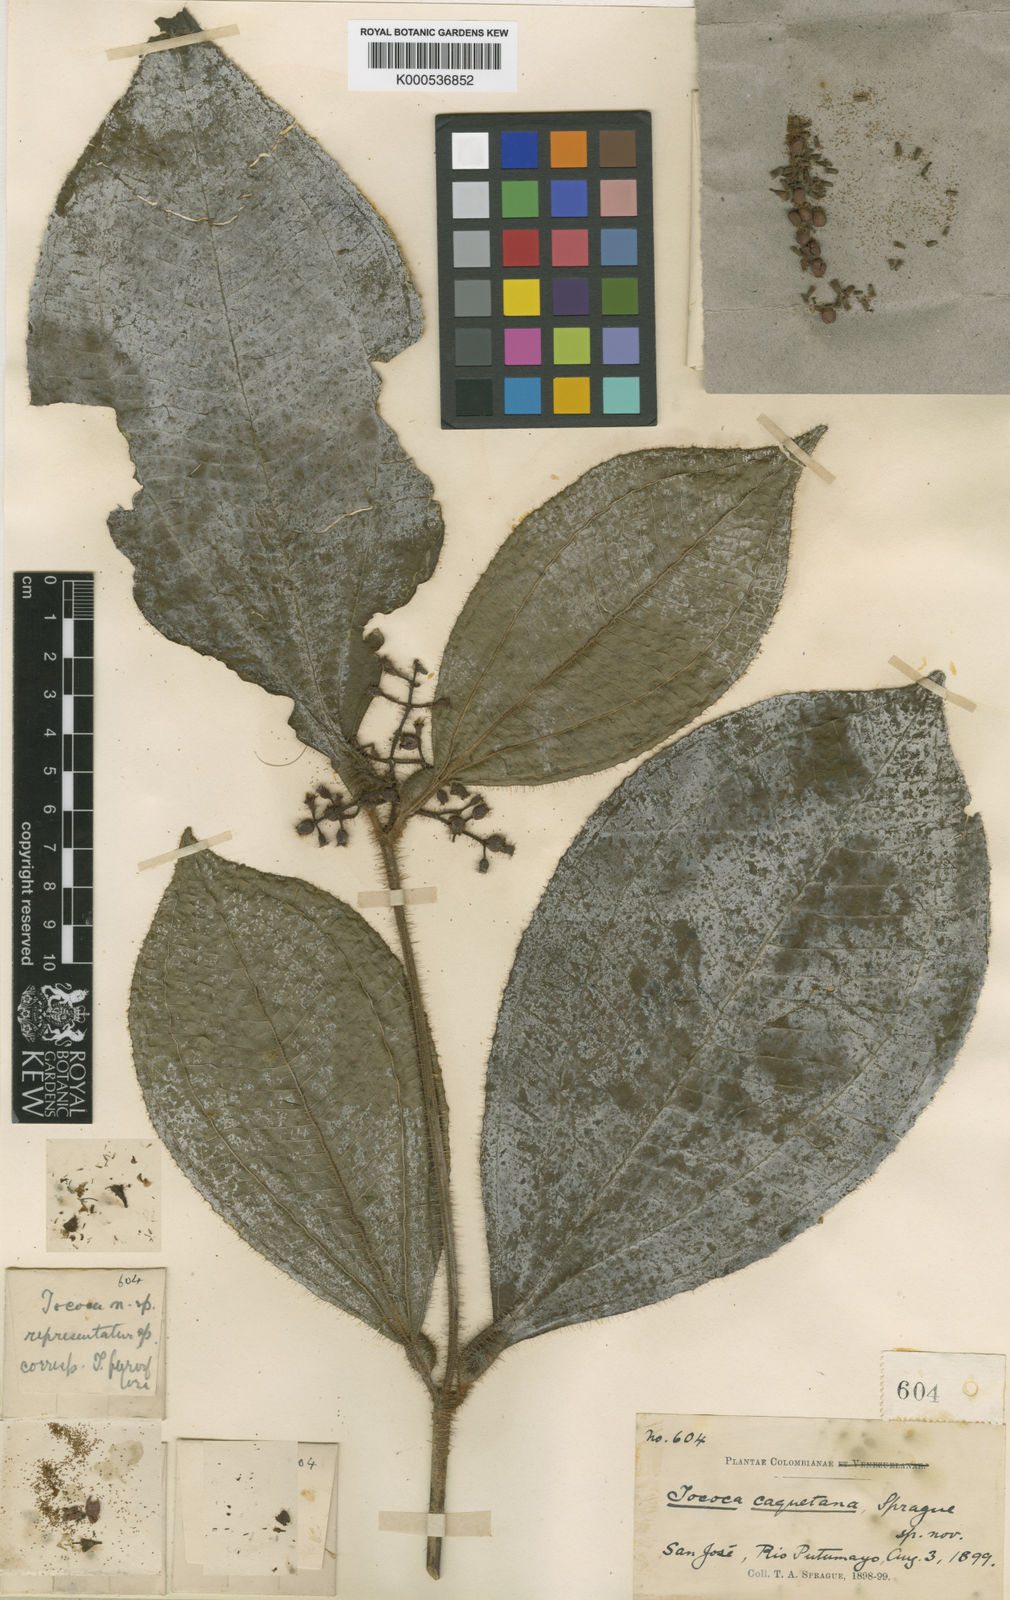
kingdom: Plantae
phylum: Tracheophyta
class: Magnoliopsida
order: Myrtales
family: Melastomataceae
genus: Miconia
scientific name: Miconia caquetana
